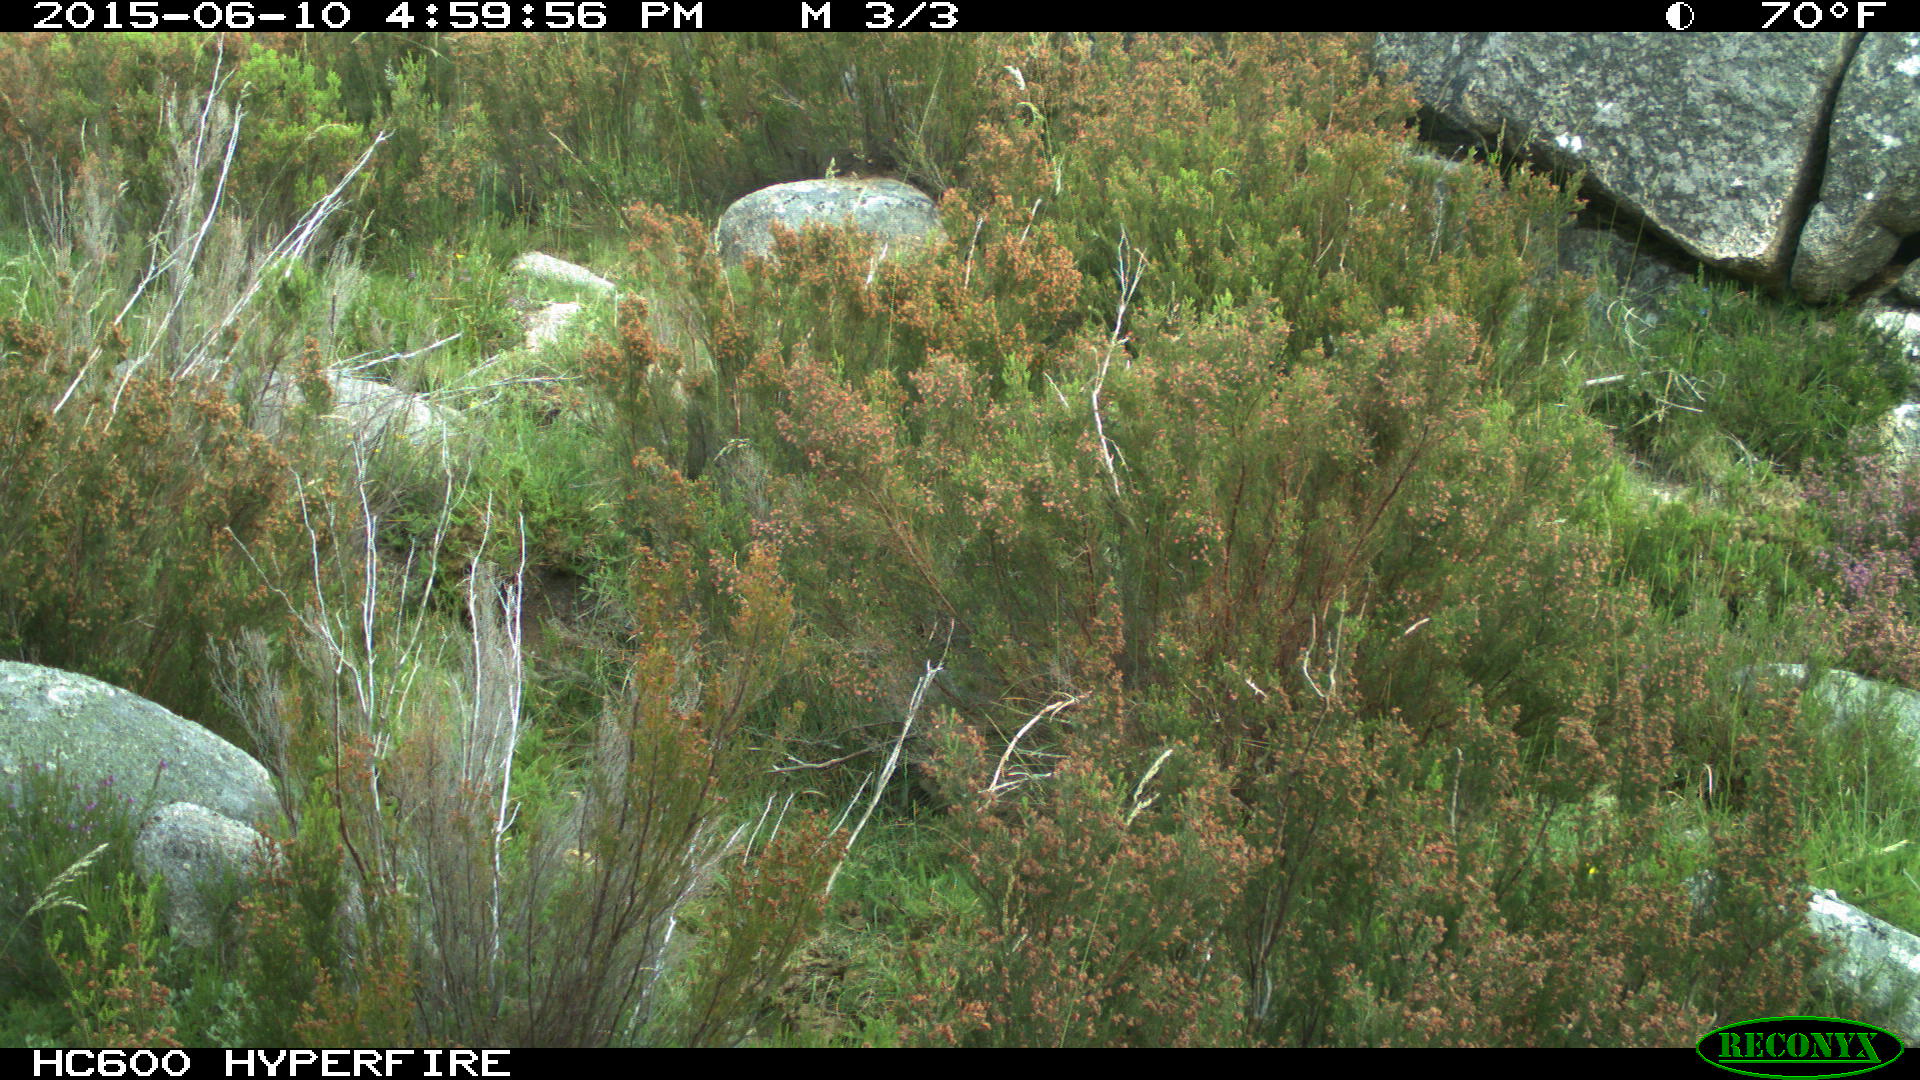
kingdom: Animalia
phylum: Chordata
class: Mammalia
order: Perissodactyla
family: Equidae
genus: Equus
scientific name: Equus caballus
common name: Horse
